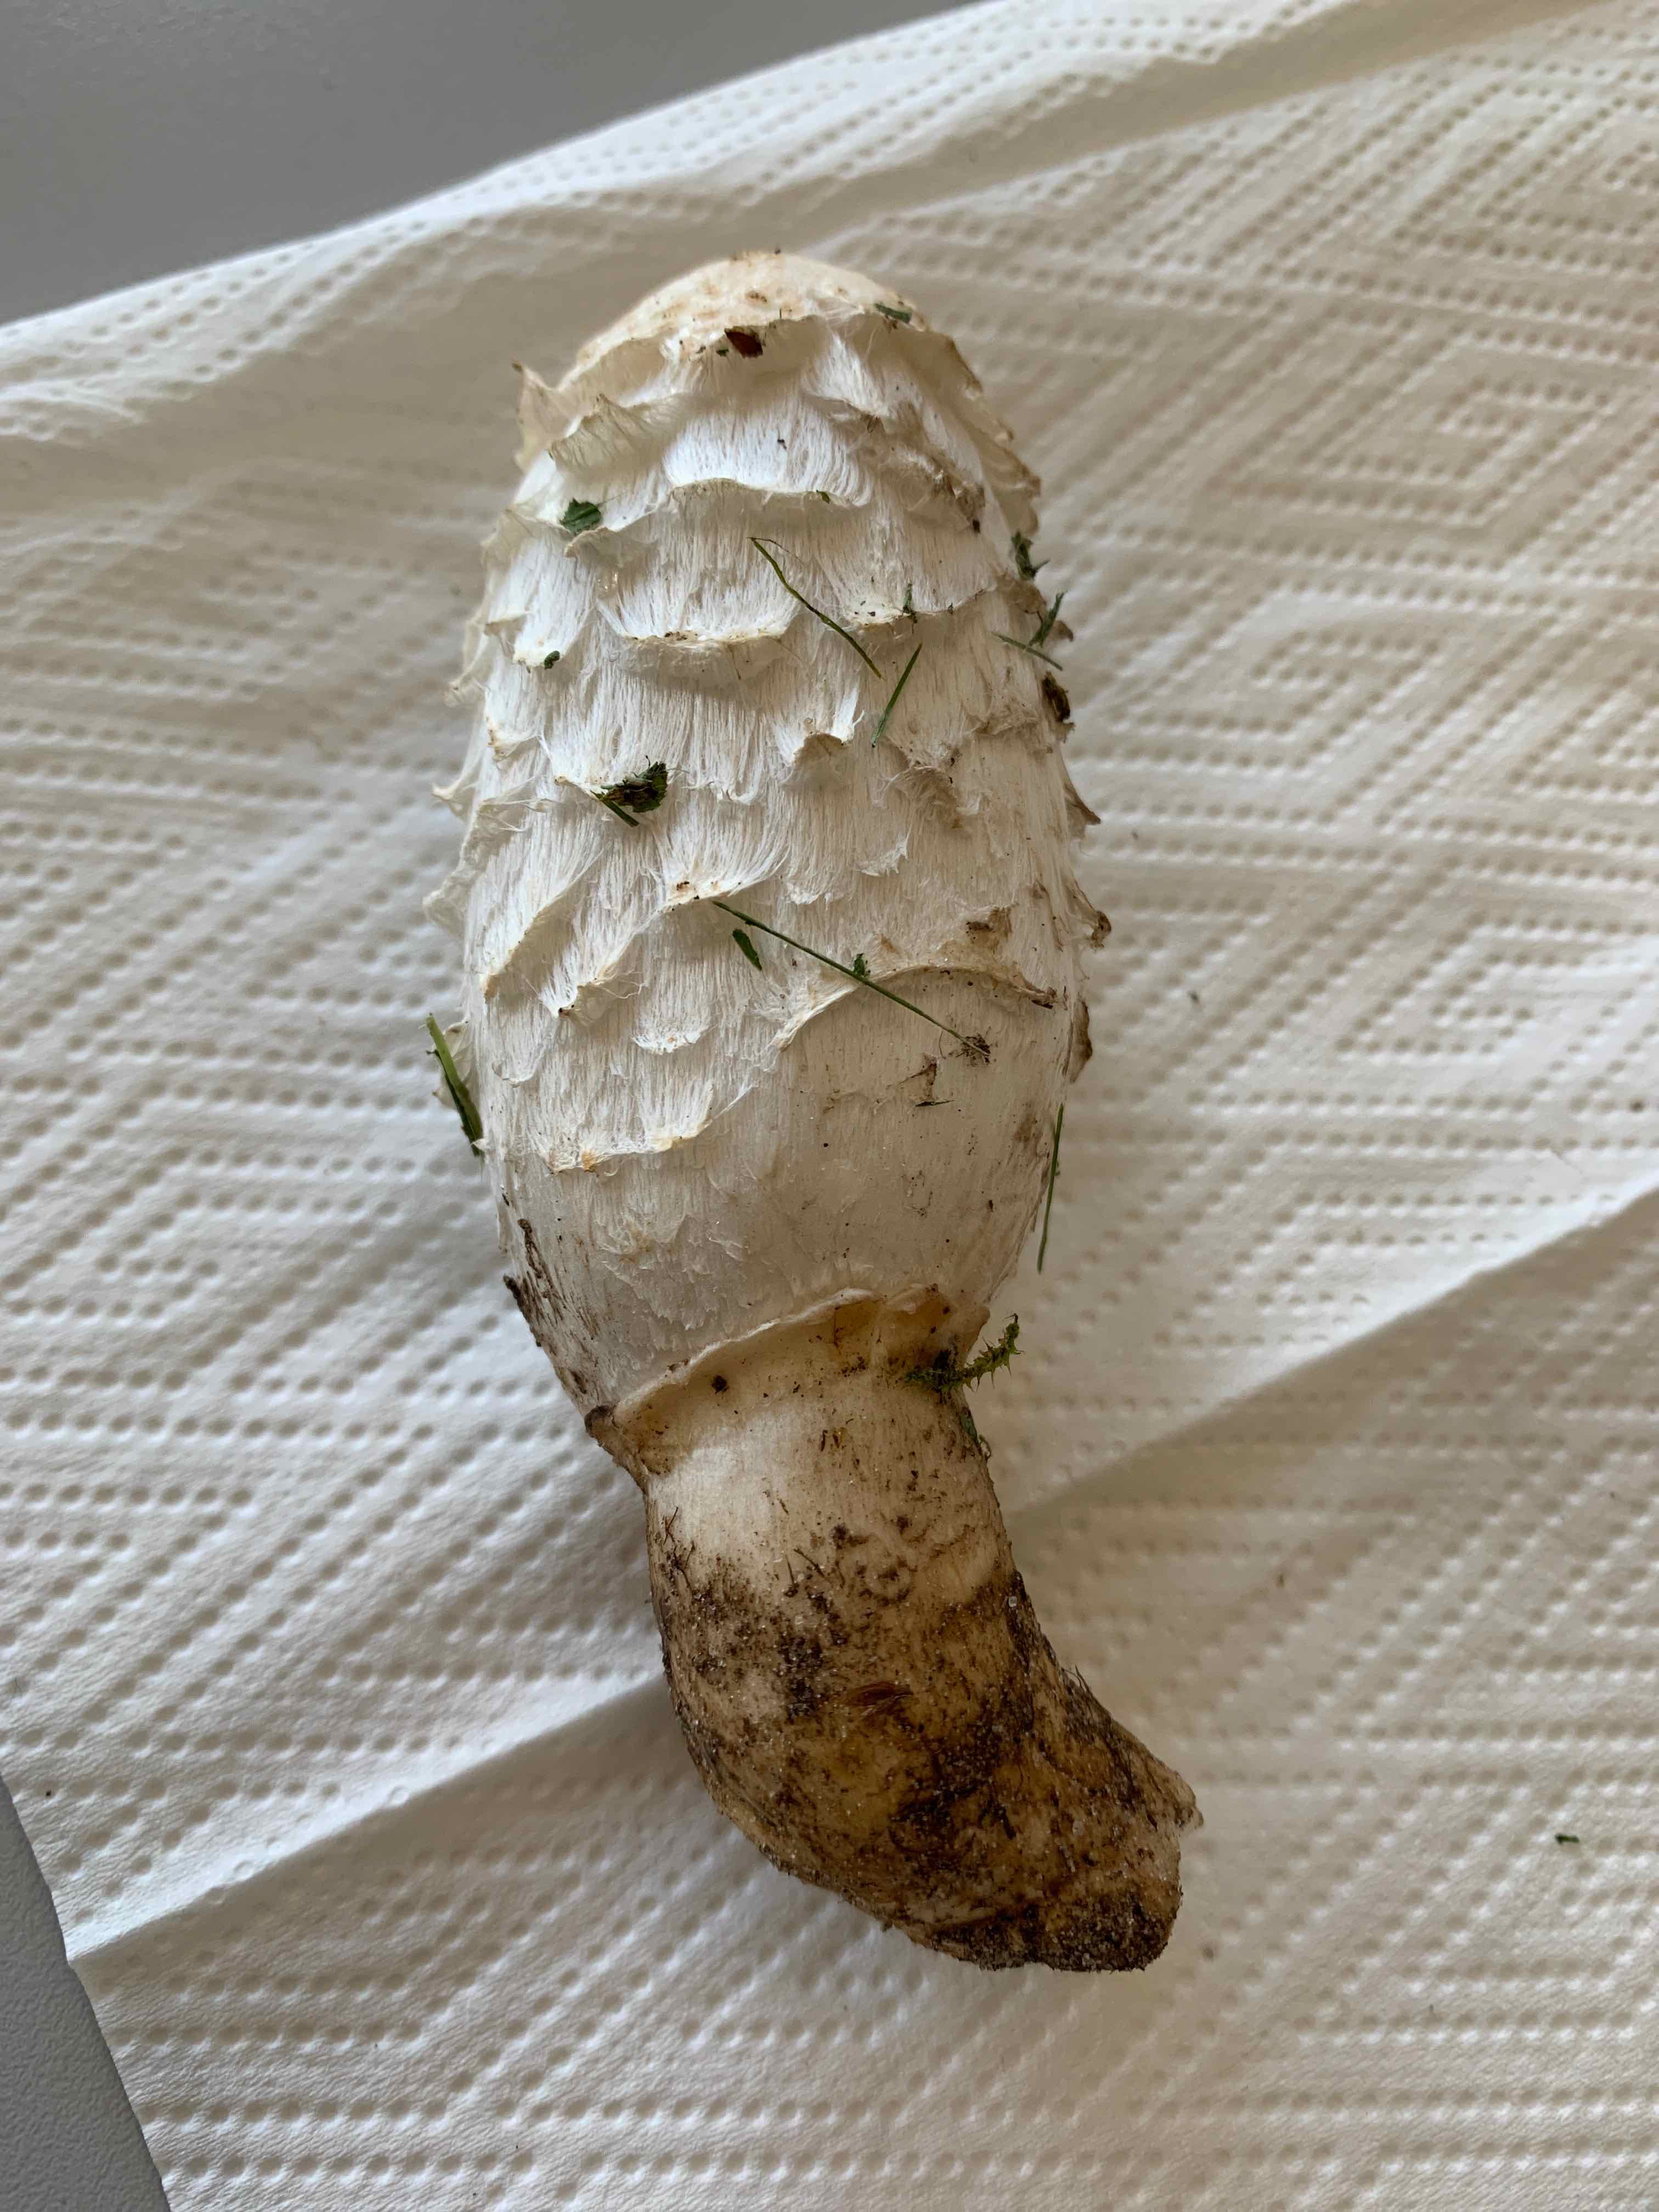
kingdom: Fungi
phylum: Basidiomycota
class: Agaricomycetes
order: Agaricales
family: Agaricaceae
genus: Coprinus
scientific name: Coprinus comatus
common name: stor parykhat
